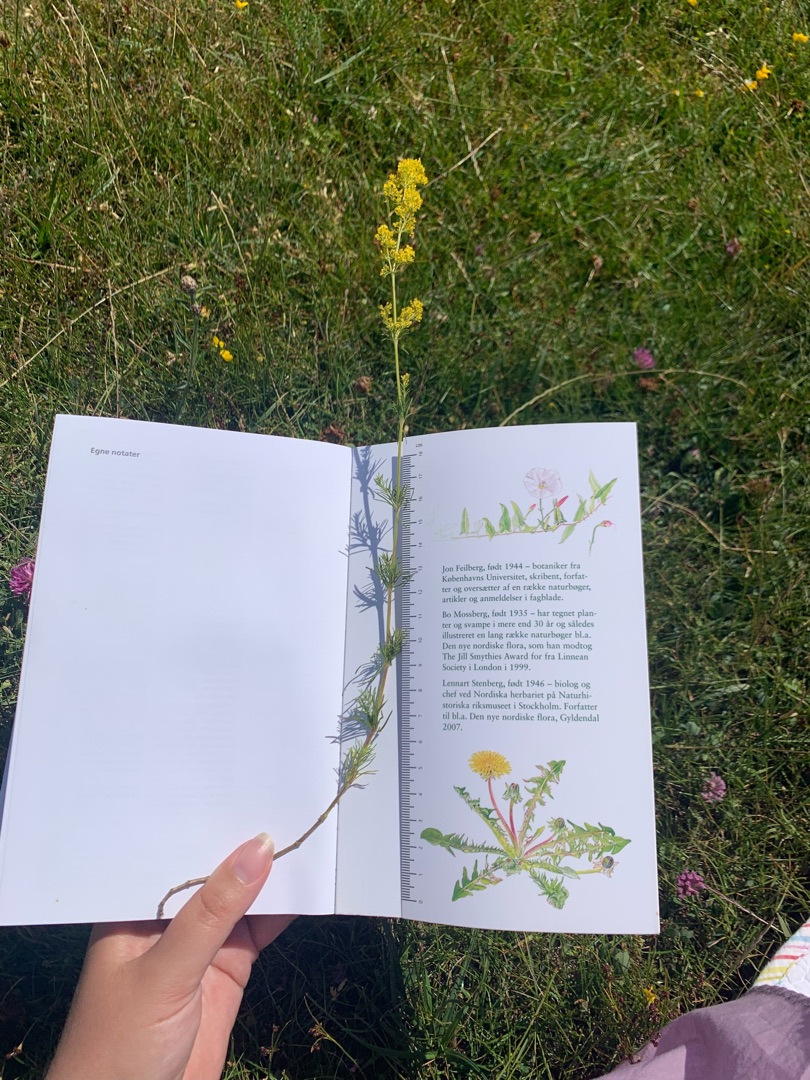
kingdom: Plantae
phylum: Tracheophyta
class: Magnoliopsida
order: Gentianales
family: Rubiaceae
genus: Galium
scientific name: Galium verum
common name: Gul snerre
